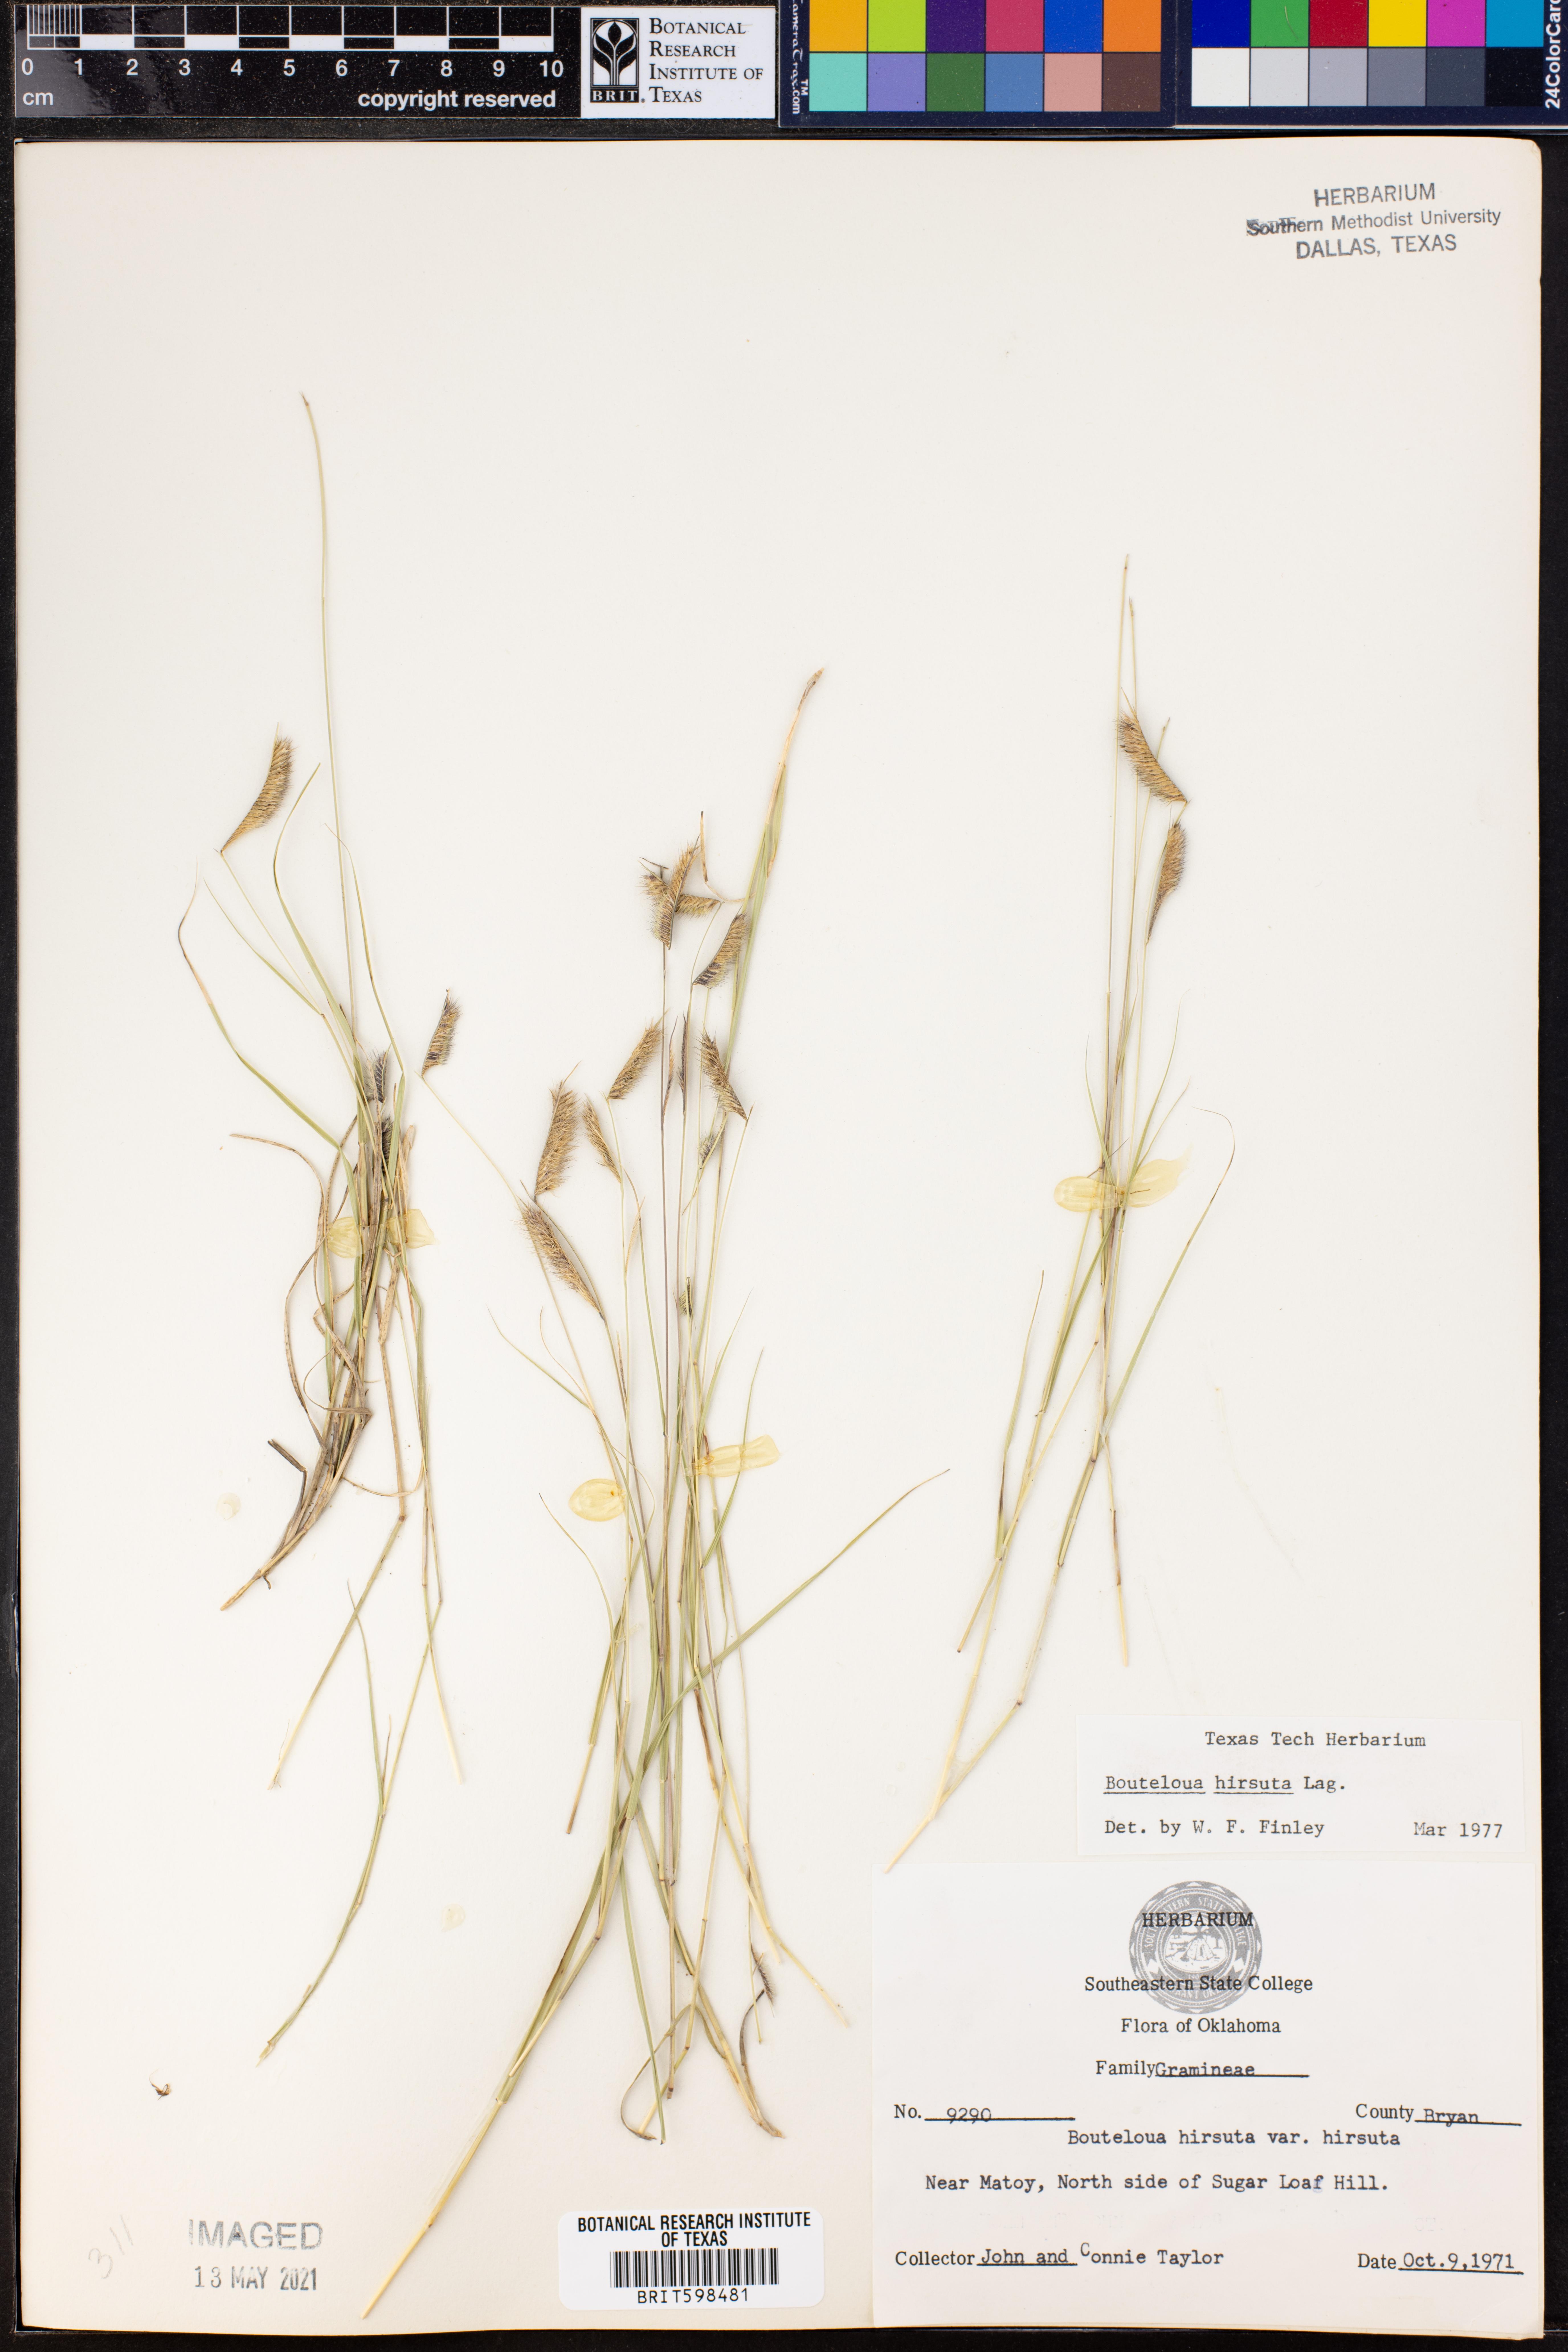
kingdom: Plantae
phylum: Tracheophyta
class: Liliopsida
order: Poales
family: Poaceae
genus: Bouteloua
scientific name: Bouteloua hirsuta
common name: Hairy grama
